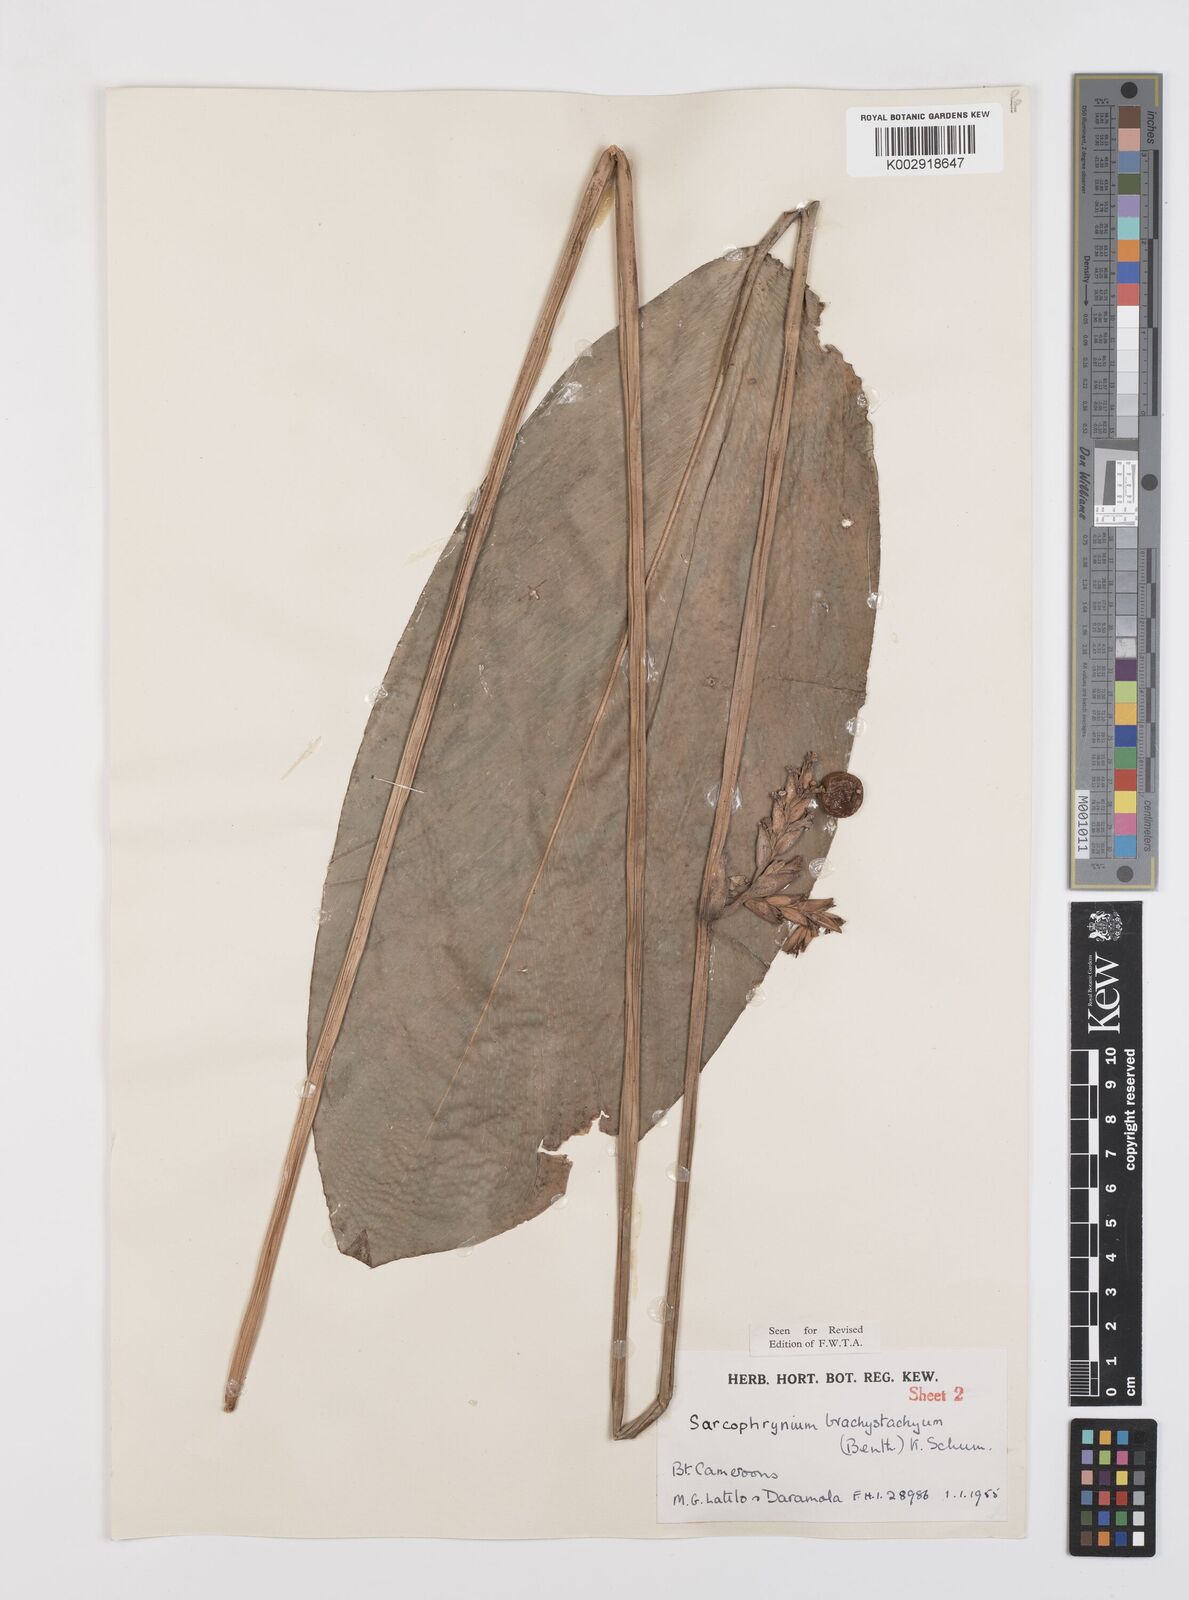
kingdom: Plantae
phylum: Tracheophyta
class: Liliopsida
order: Zingiberales
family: Marantaceae
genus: Sarcophrynium
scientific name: Sarcophrynium brachystachyum
